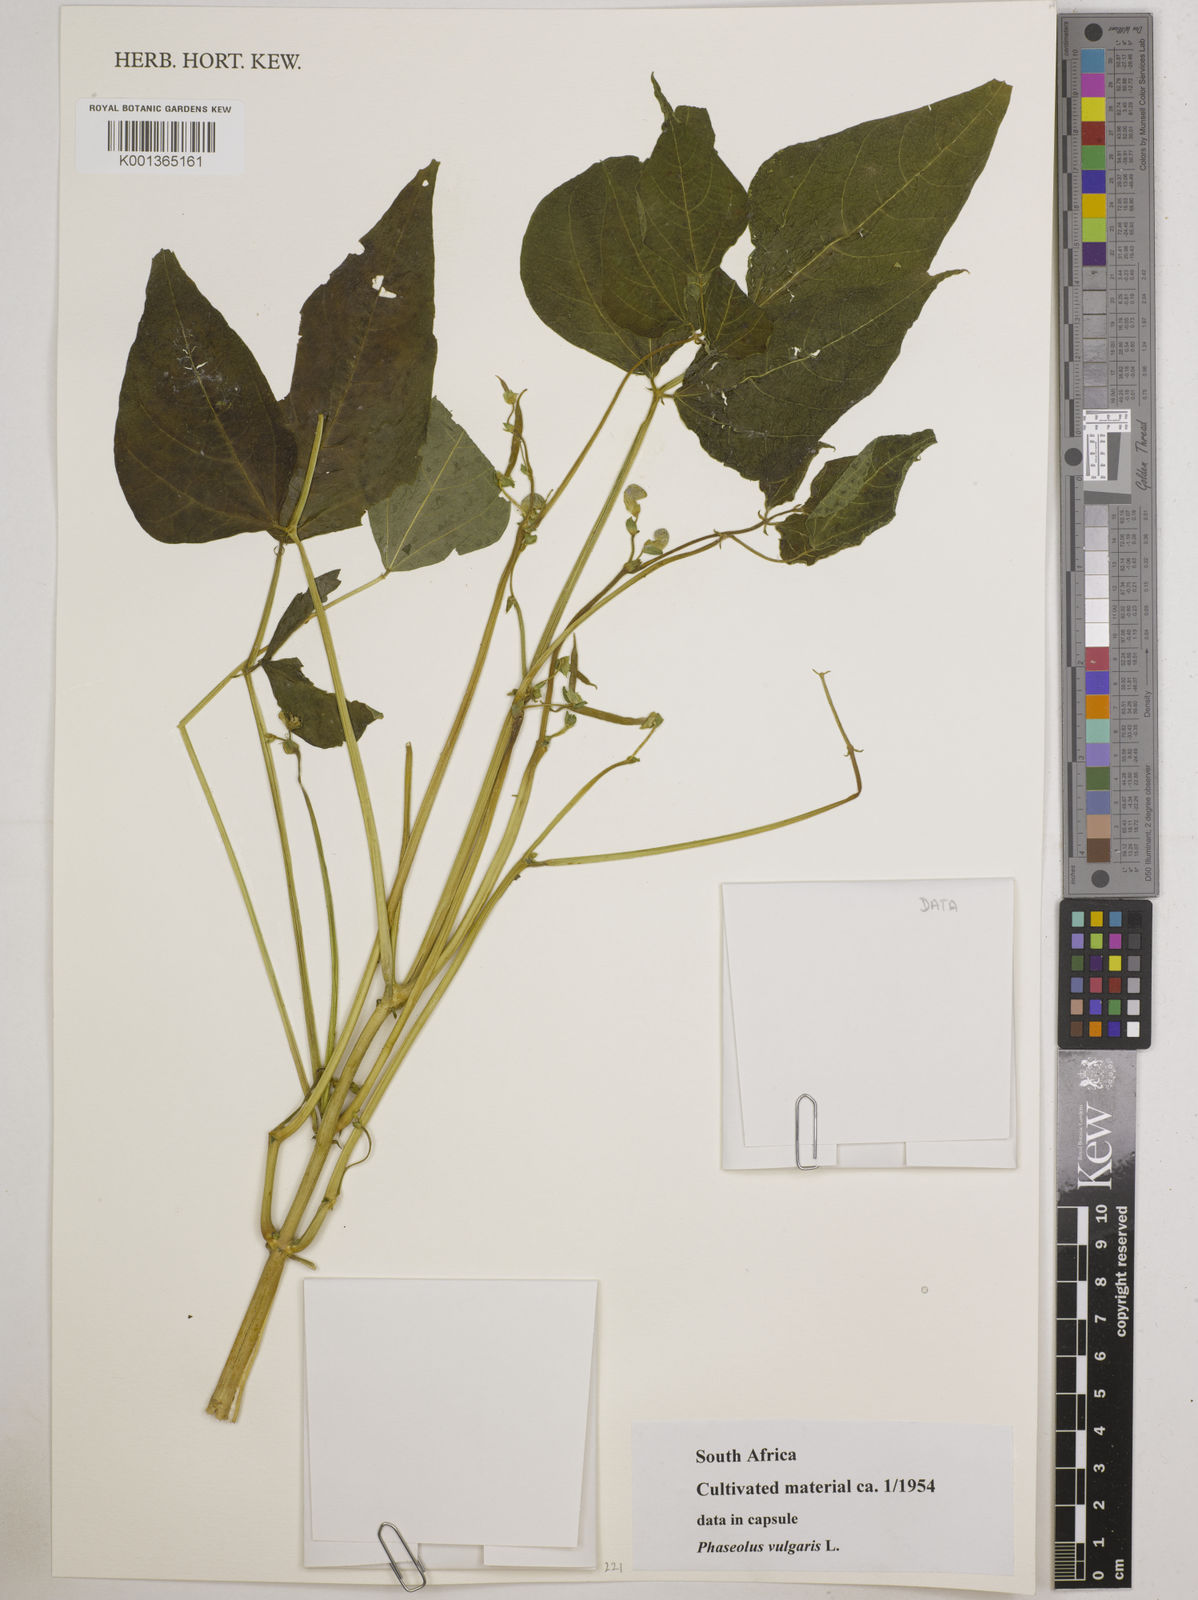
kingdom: Plantae
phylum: Tracheophyta
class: Magnoliopsida
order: Fabales
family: Fabaceae
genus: Phaseolus
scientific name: Phaseolus vulgaris
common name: Bean
